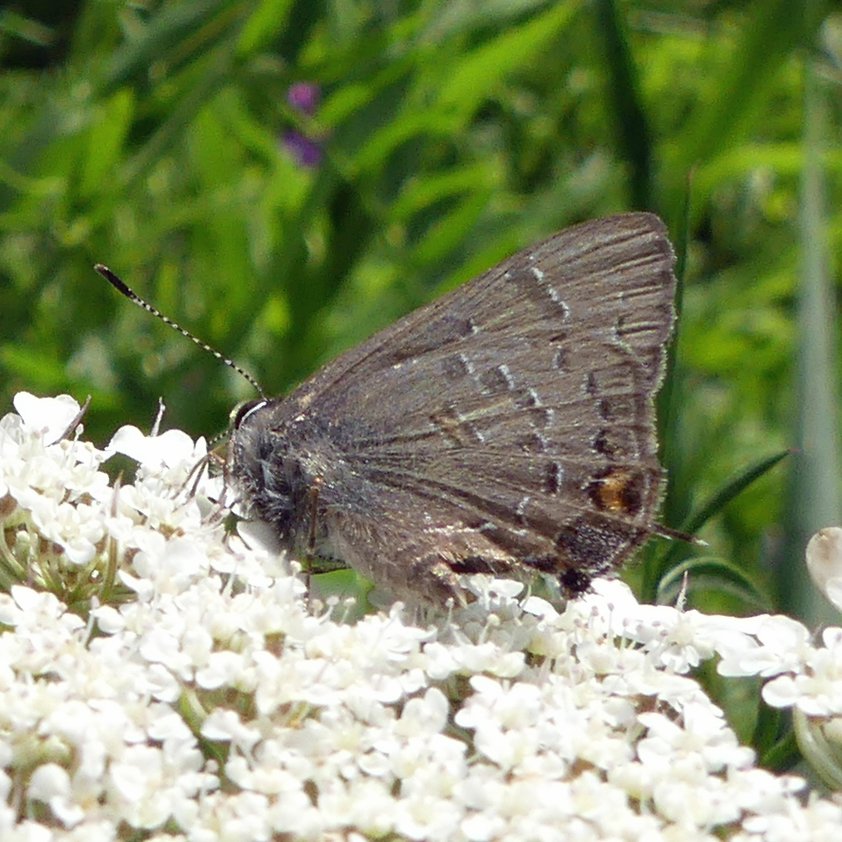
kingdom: Animalia
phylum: Arthropoda
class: Insecta
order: Lepidoptera
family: Lycaenidae
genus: Satyrium
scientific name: Satyrium calanus
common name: Banded Hairstreak
